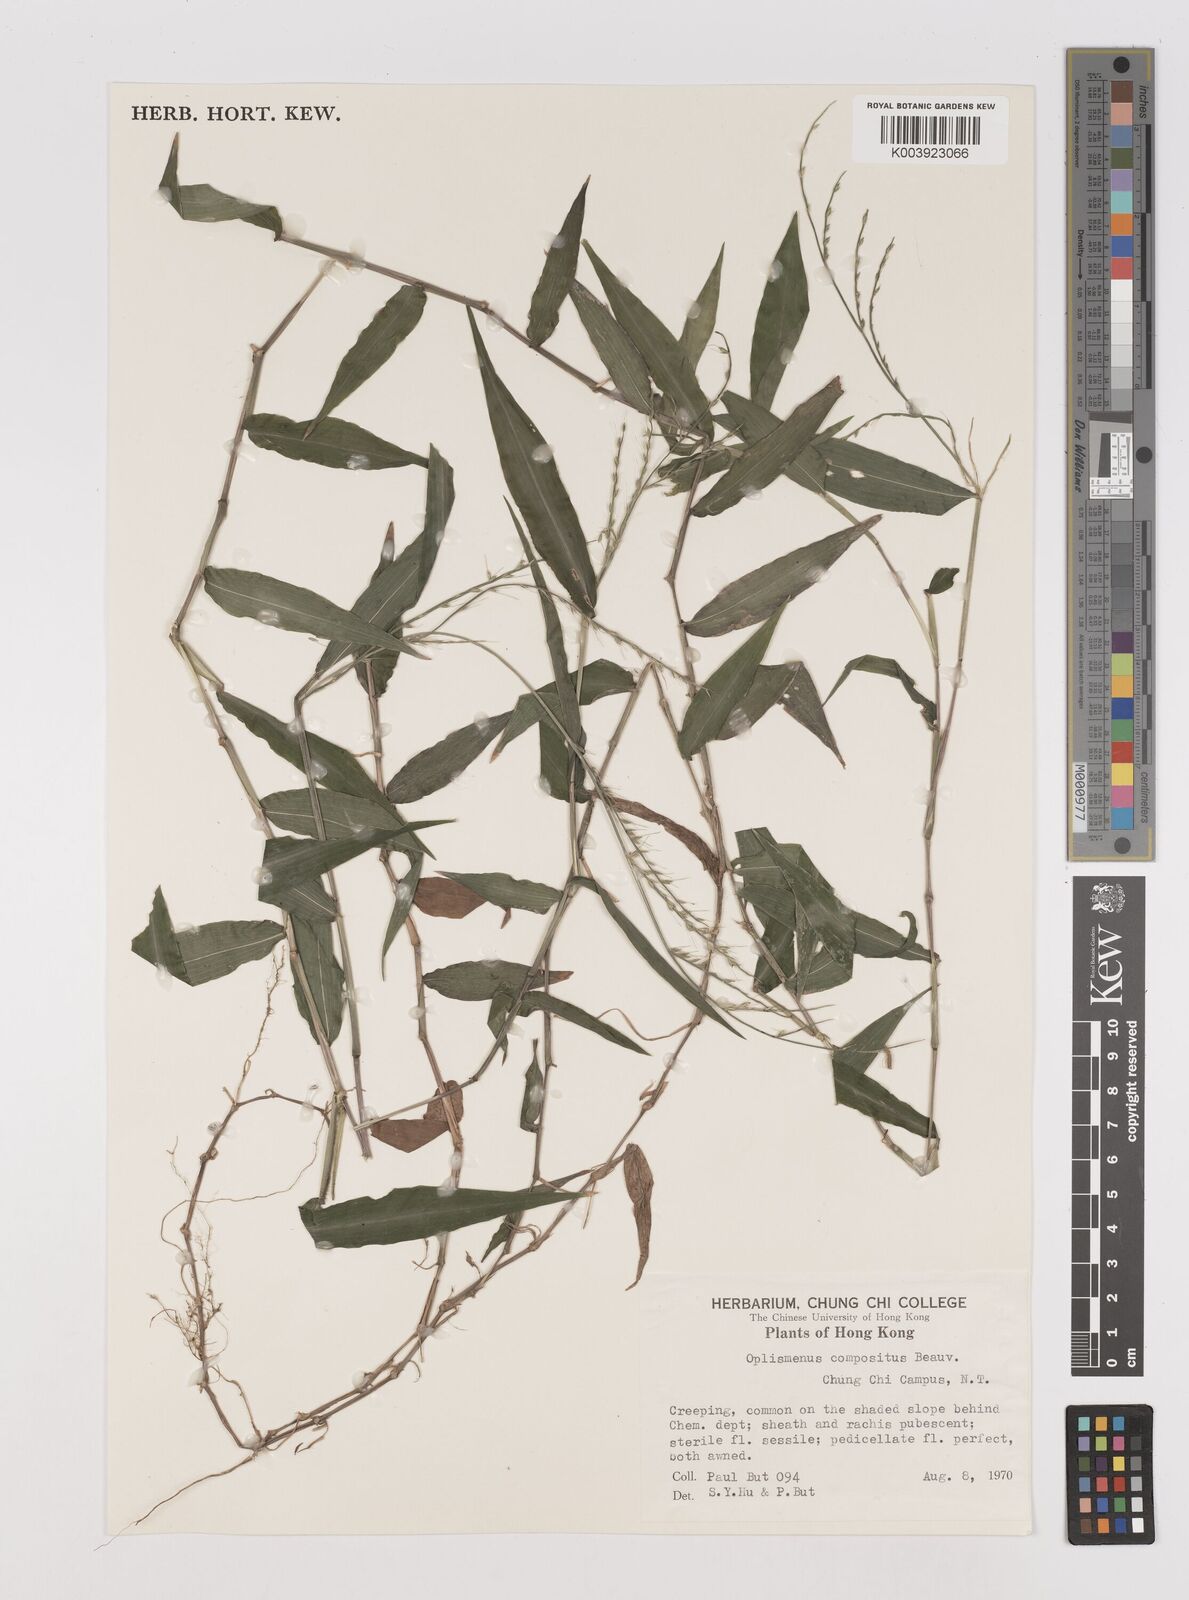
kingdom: Plantae
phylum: Tracheophyta
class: Liliopsida
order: Poales
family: Poaceae
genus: Oplismenus
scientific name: Oplismenus compositus
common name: Running mountain grass
